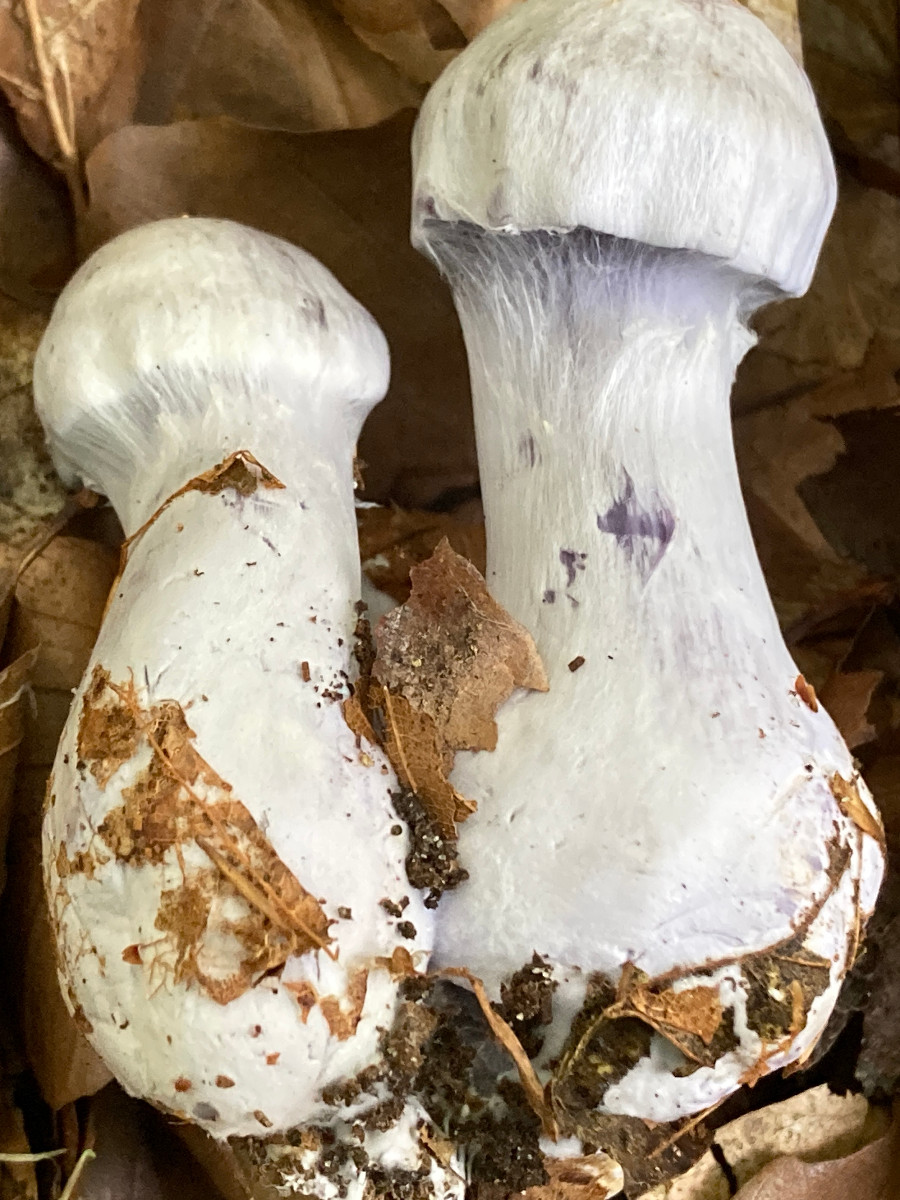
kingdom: Fungi
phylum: Basidiomycota
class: Agaricomycetes
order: Agaricales
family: Cortinariaceae
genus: Cortinarius
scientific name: Cortinarius alboviolaceus
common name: lysviolet slørhat
